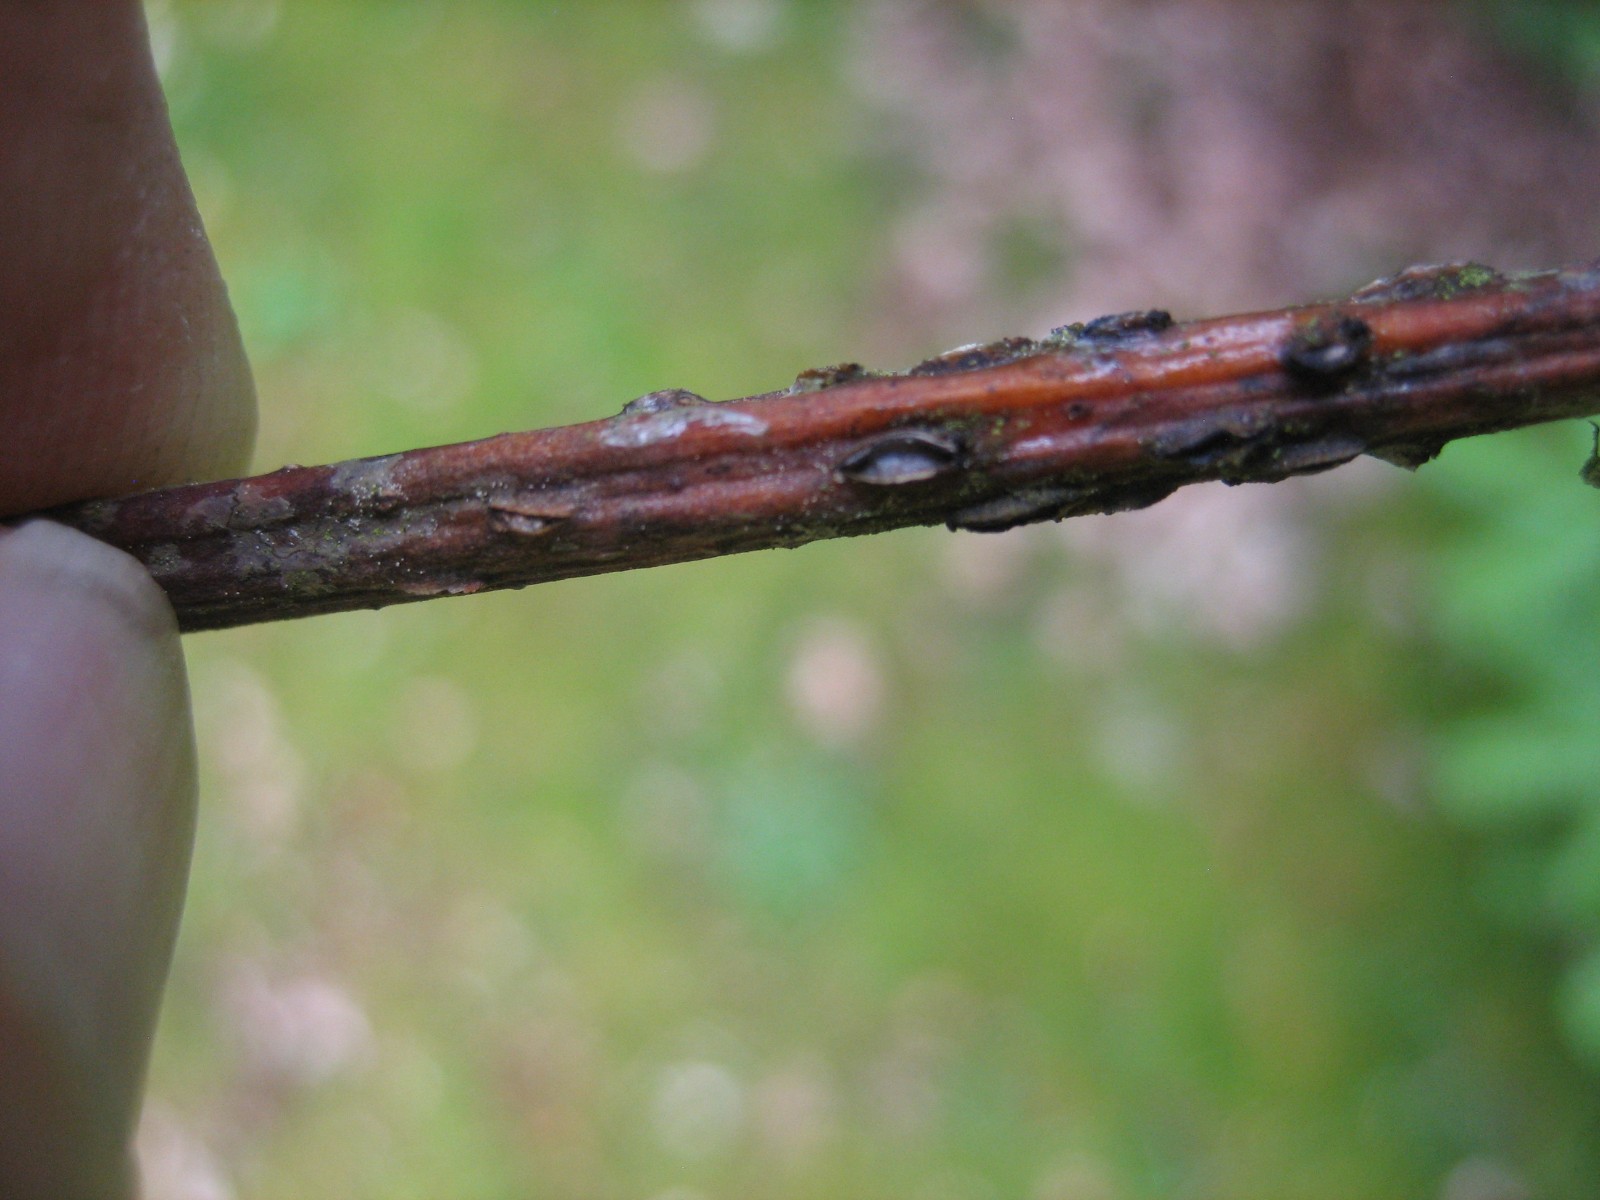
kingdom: Fungi
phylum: Ascomycota
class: Leotiomycetes
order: Rhytismatales
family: Rhytismataceae
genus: Colpoma
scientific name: Colpoma quercinum
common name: ege-sprækkeskive
